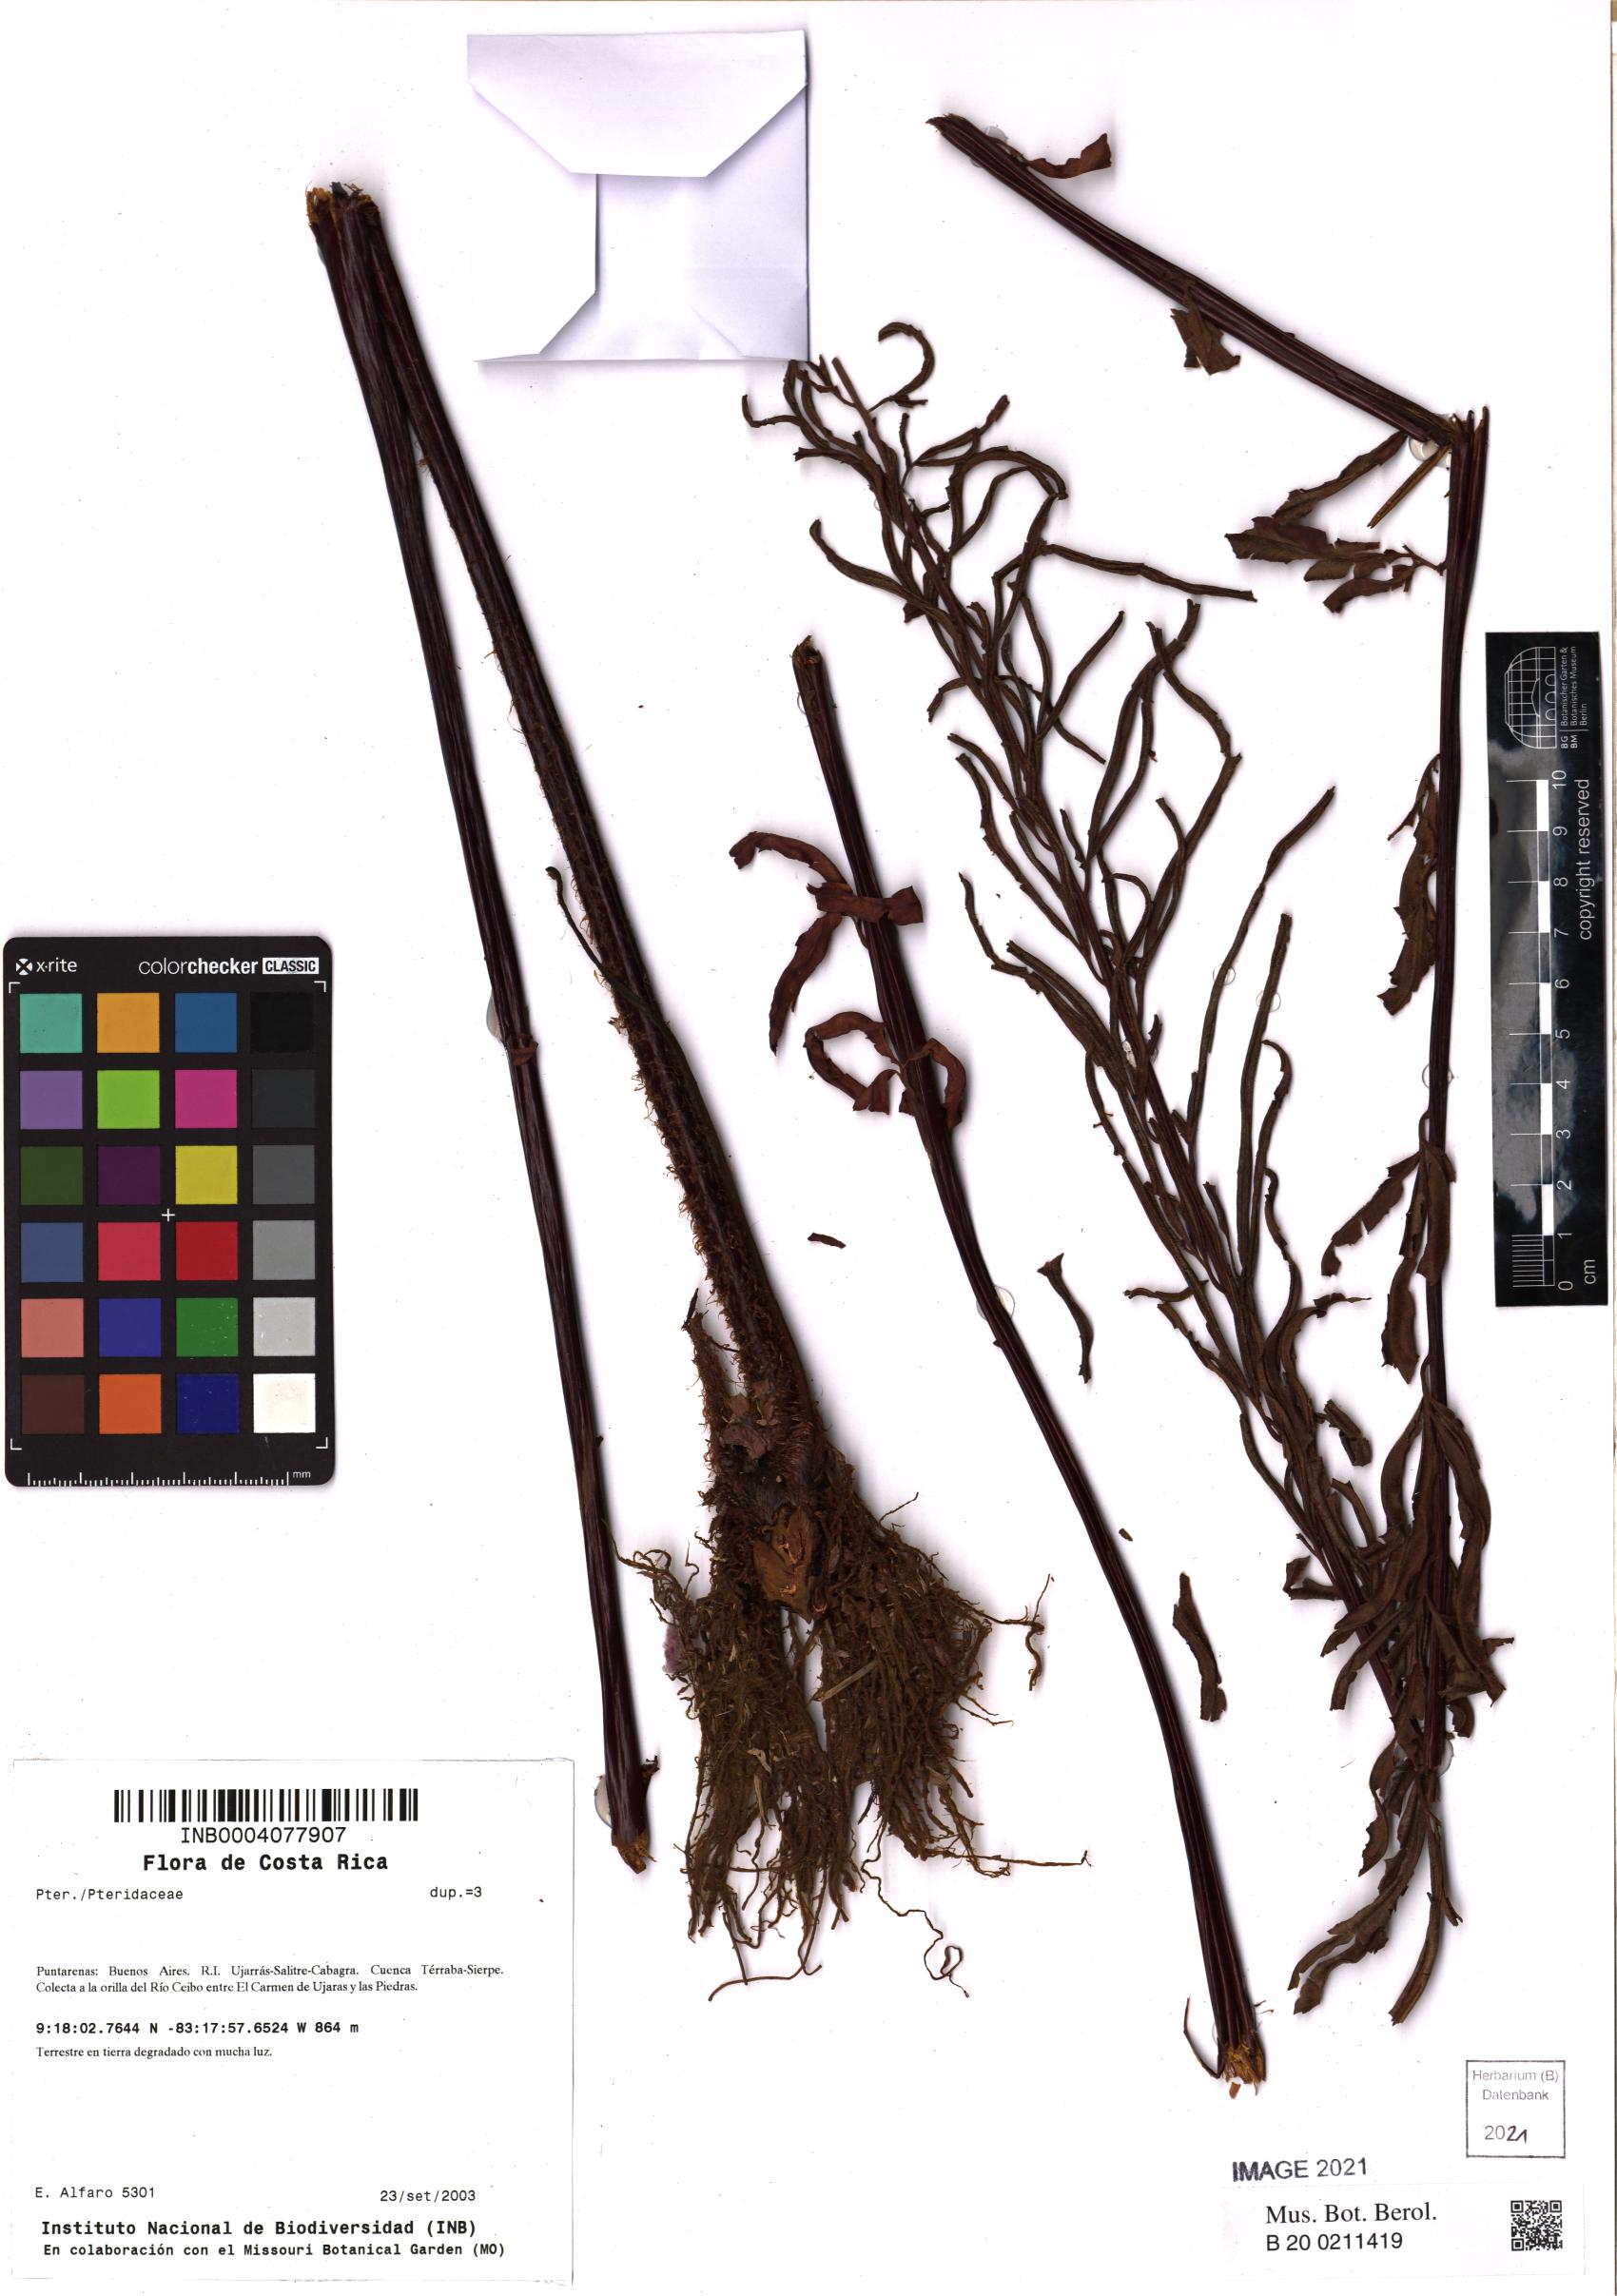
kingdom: Plantae
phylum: Tracheophyta
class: Polypodiopsida
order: Polypodiales
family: Blechnaceae
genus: Blechnum
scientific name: Blechnum
